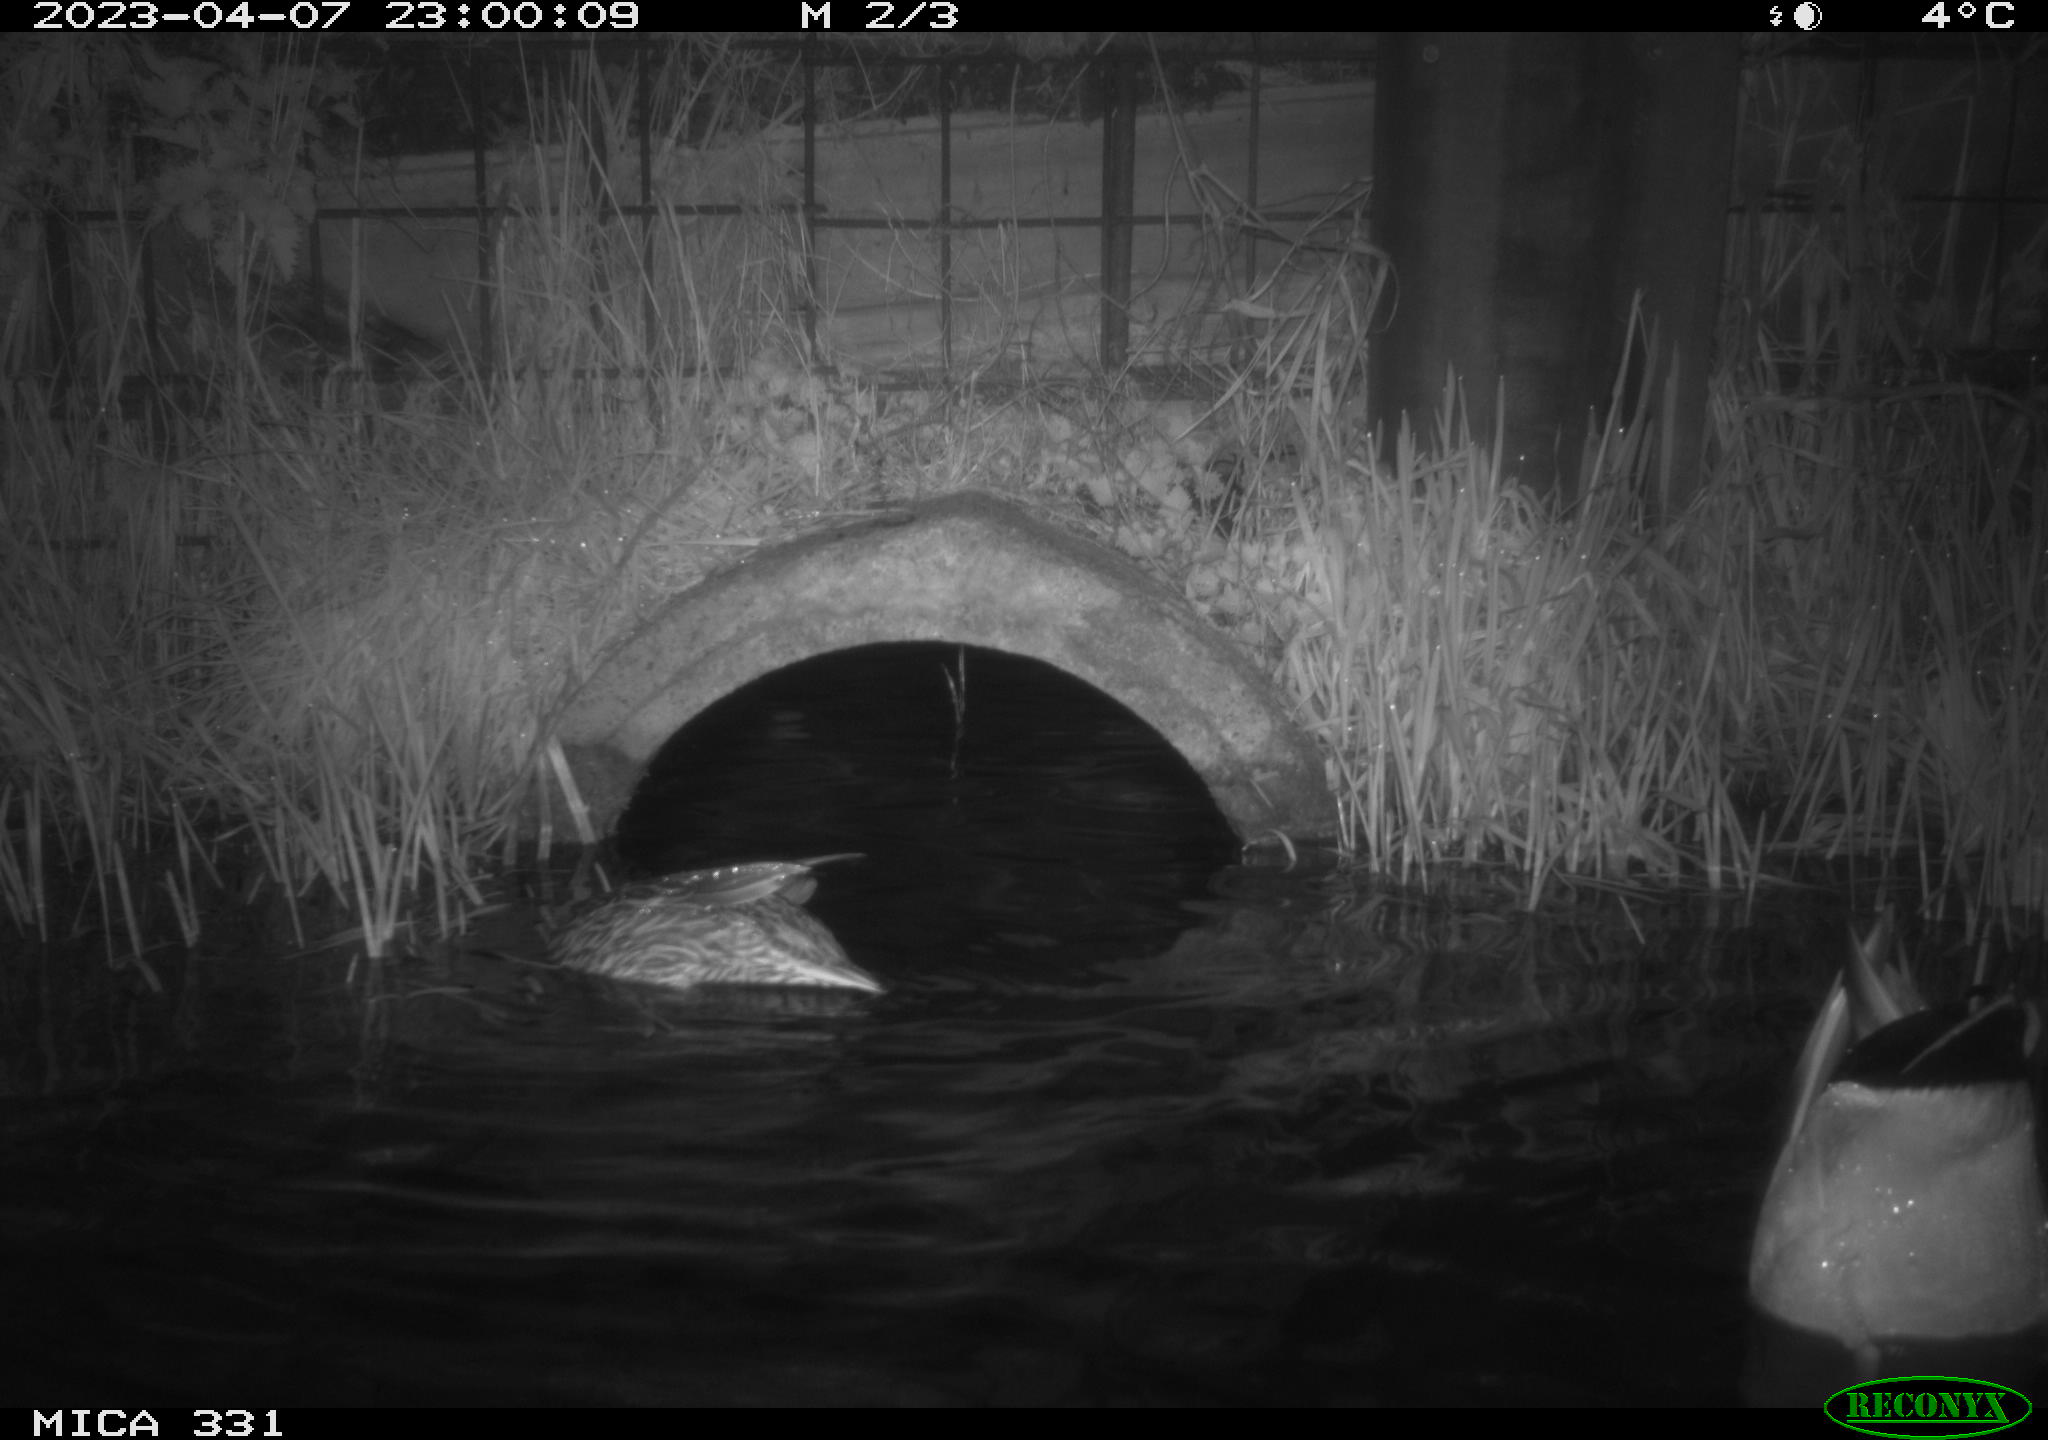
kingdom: Animalia
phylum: Chordata
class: Aves
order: Anseriformes
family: Anatidae
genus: Anas
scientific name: Anas platyrhynchos
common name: Mallard
